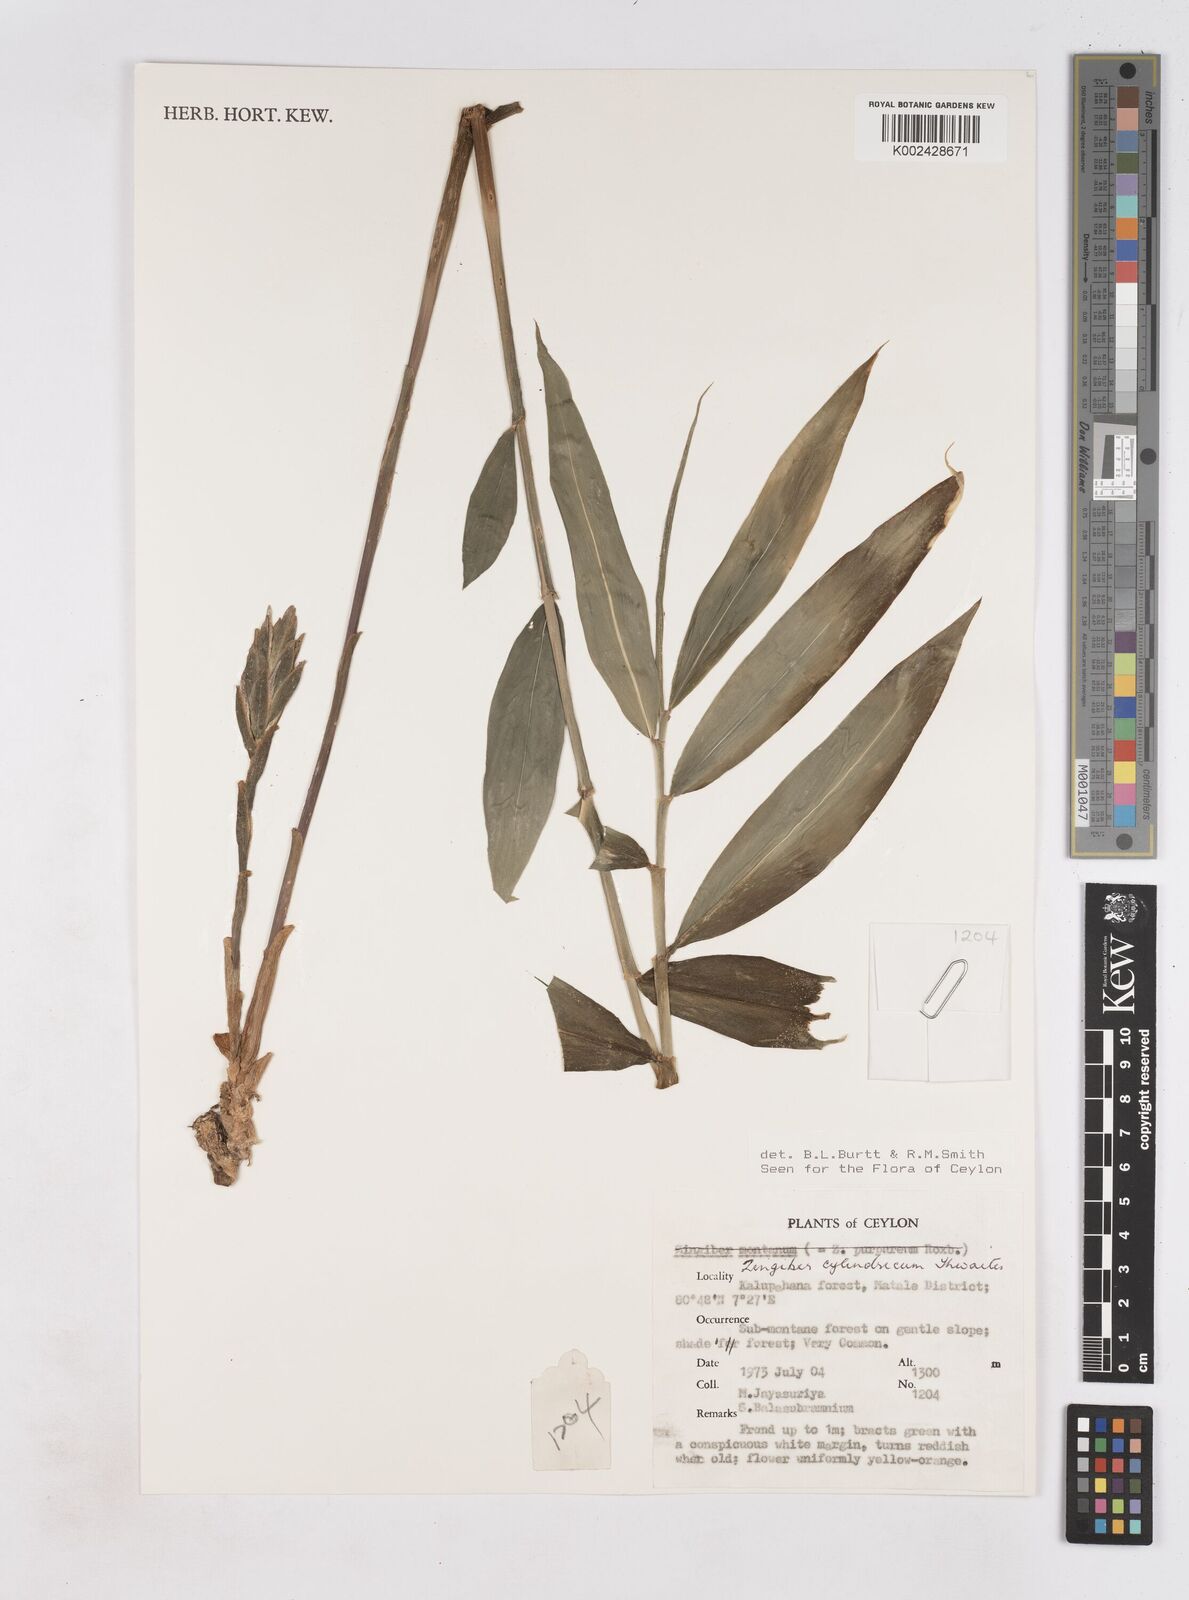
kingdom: Plantae
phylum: Tracheophyta
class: Liliopsida
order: Zingiberales
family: Zingiberaceae
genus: Zingiber
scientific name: Zingiber cylindricum
